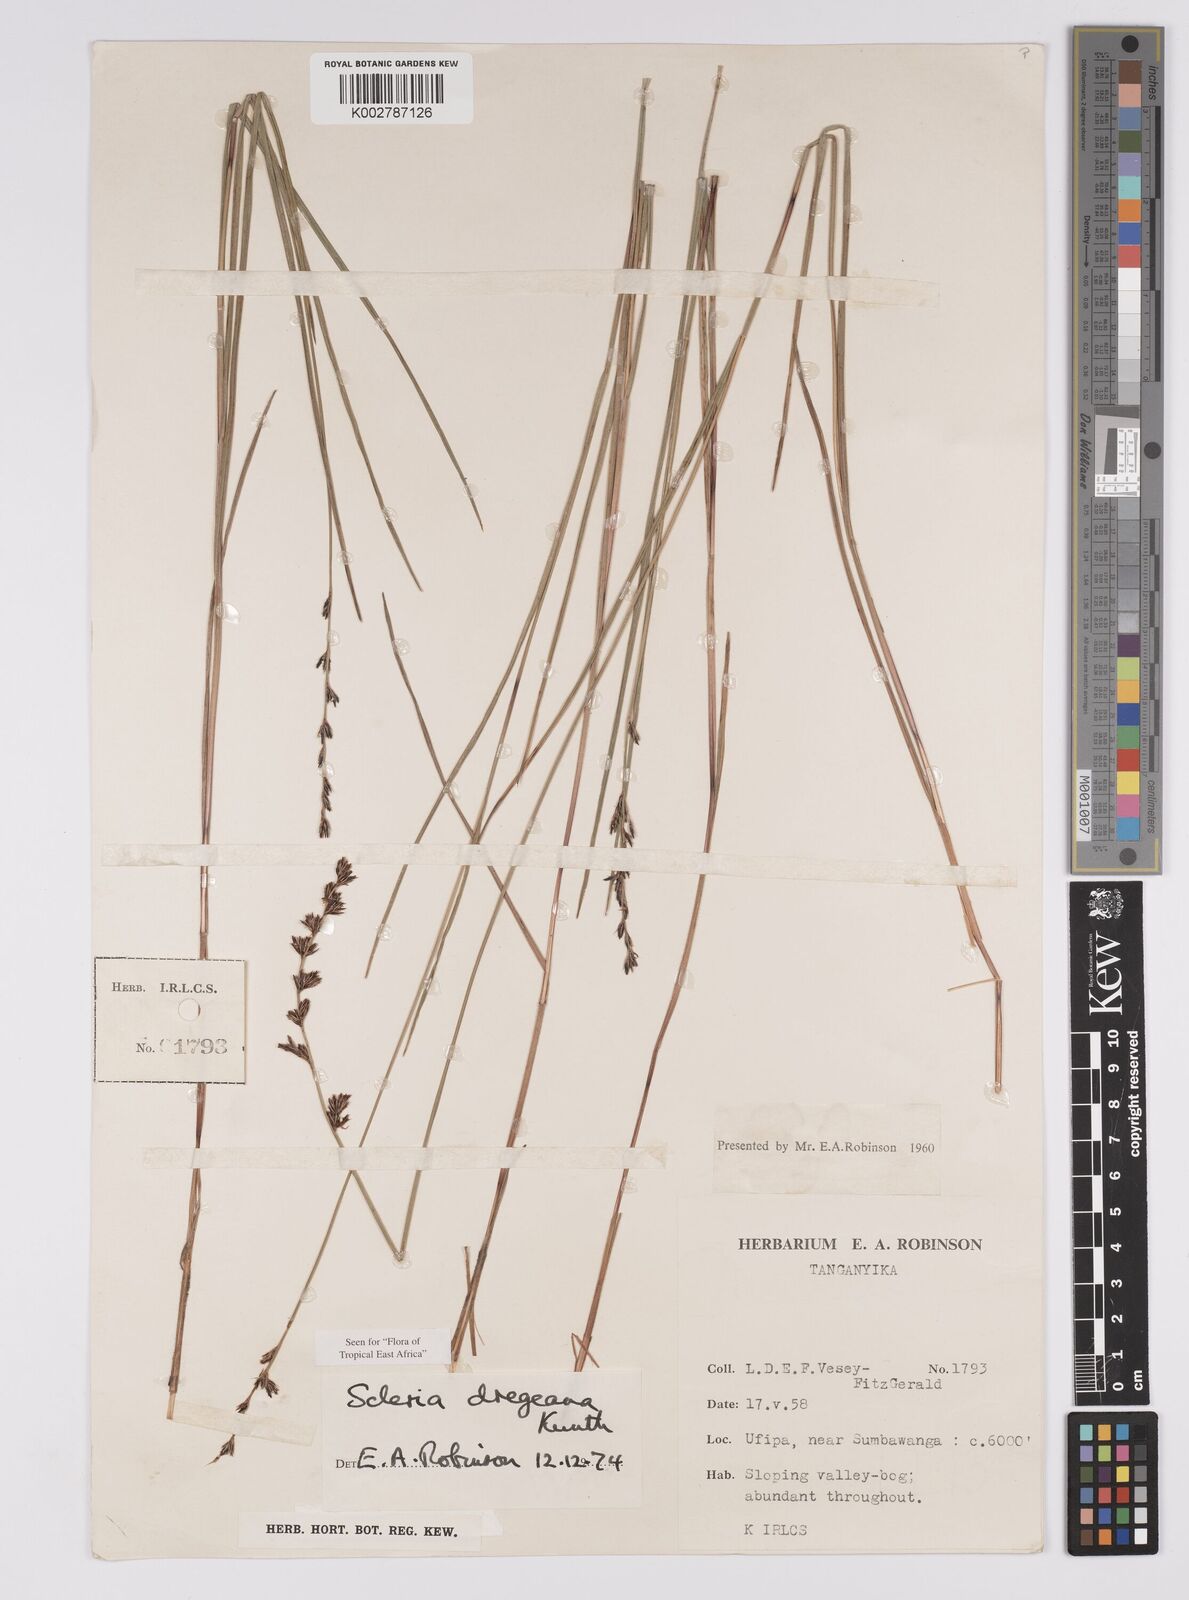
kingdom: Plantae
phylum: Tracheophyta
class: Liliopsida
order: Poales
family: Cyperaceae
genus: Scleria
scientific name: Scleria dregeana
